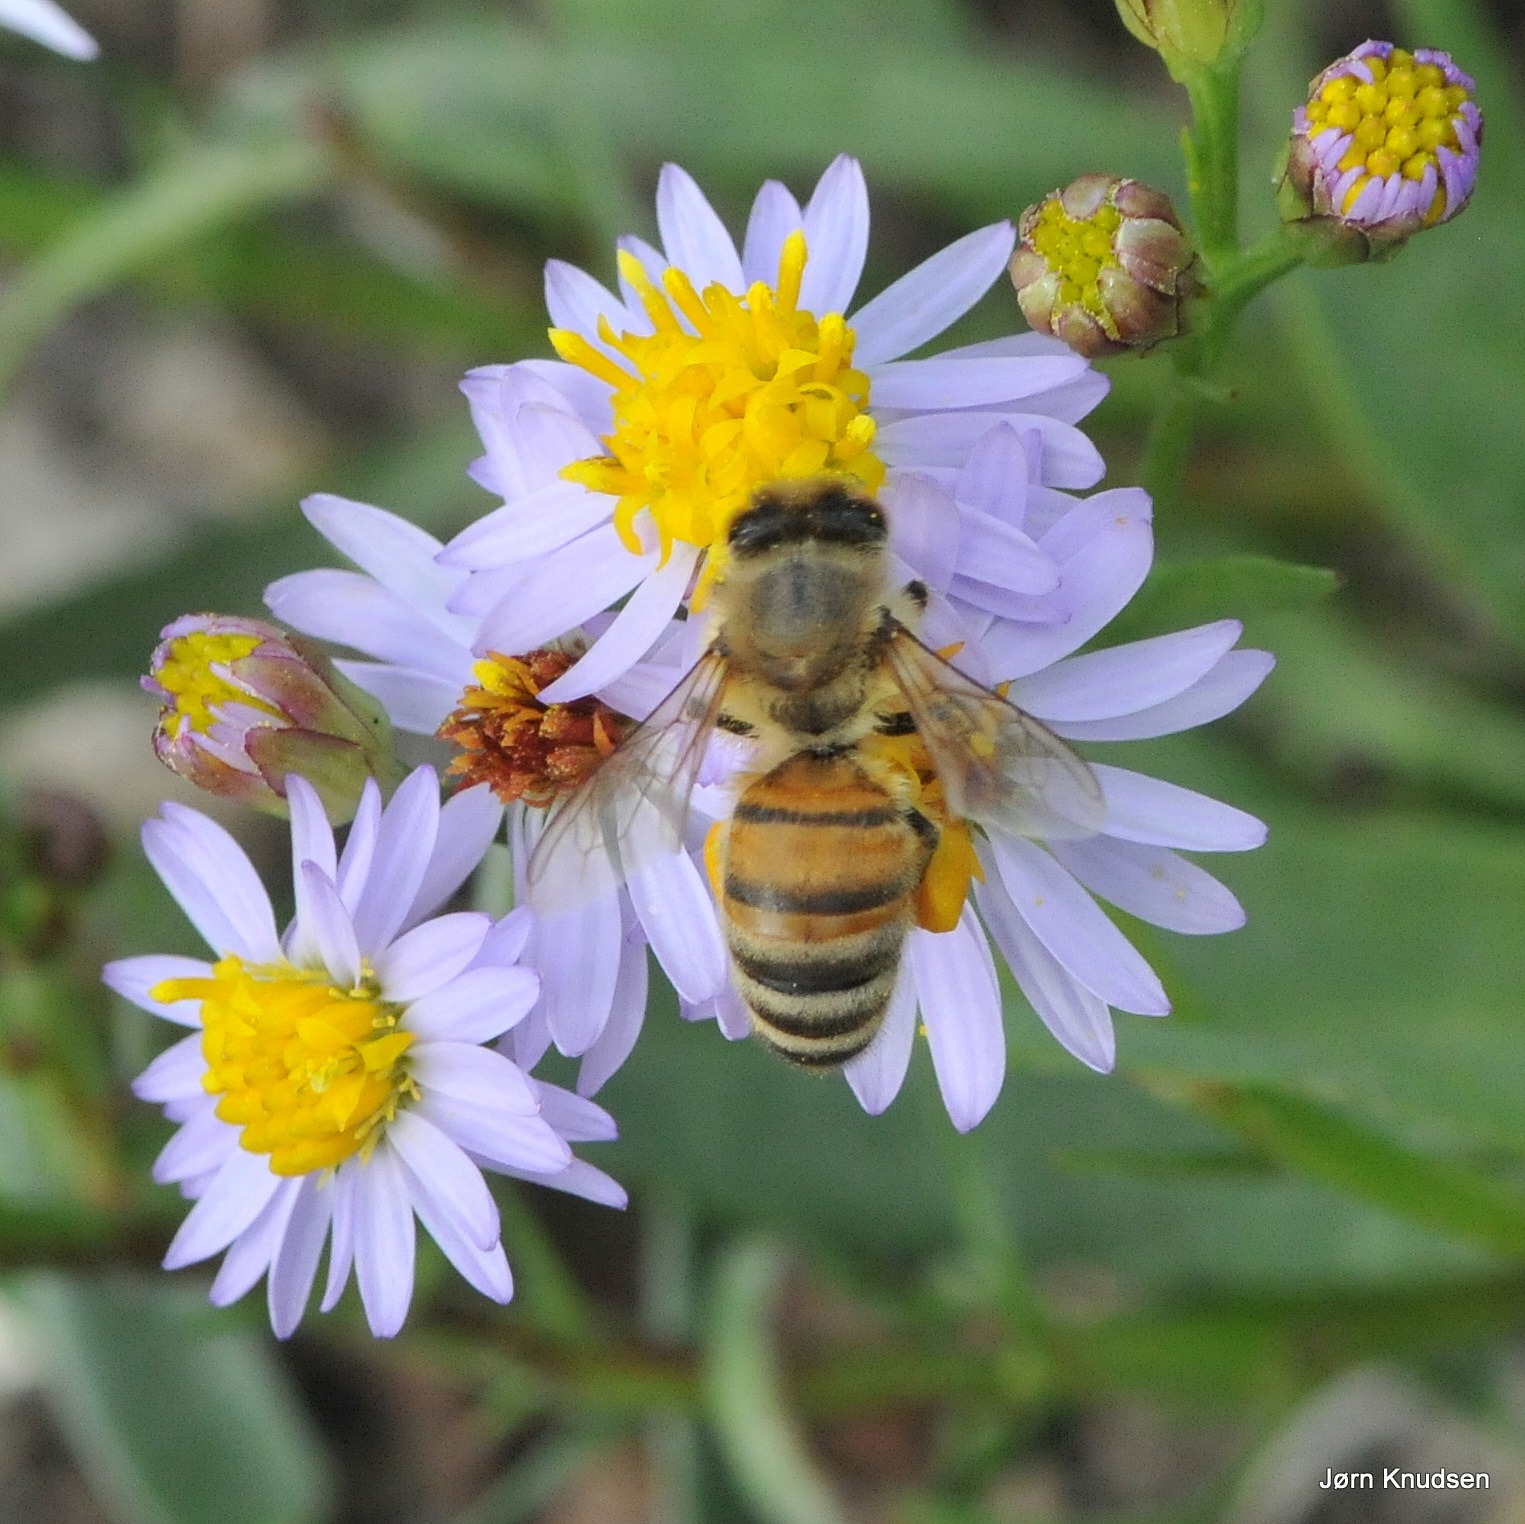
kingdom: Animalia
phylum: Arthropoda
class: Insecta
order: Hymenoptera
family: Apidae
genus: Apis
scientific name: Apis mellifera
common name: Honningbi
